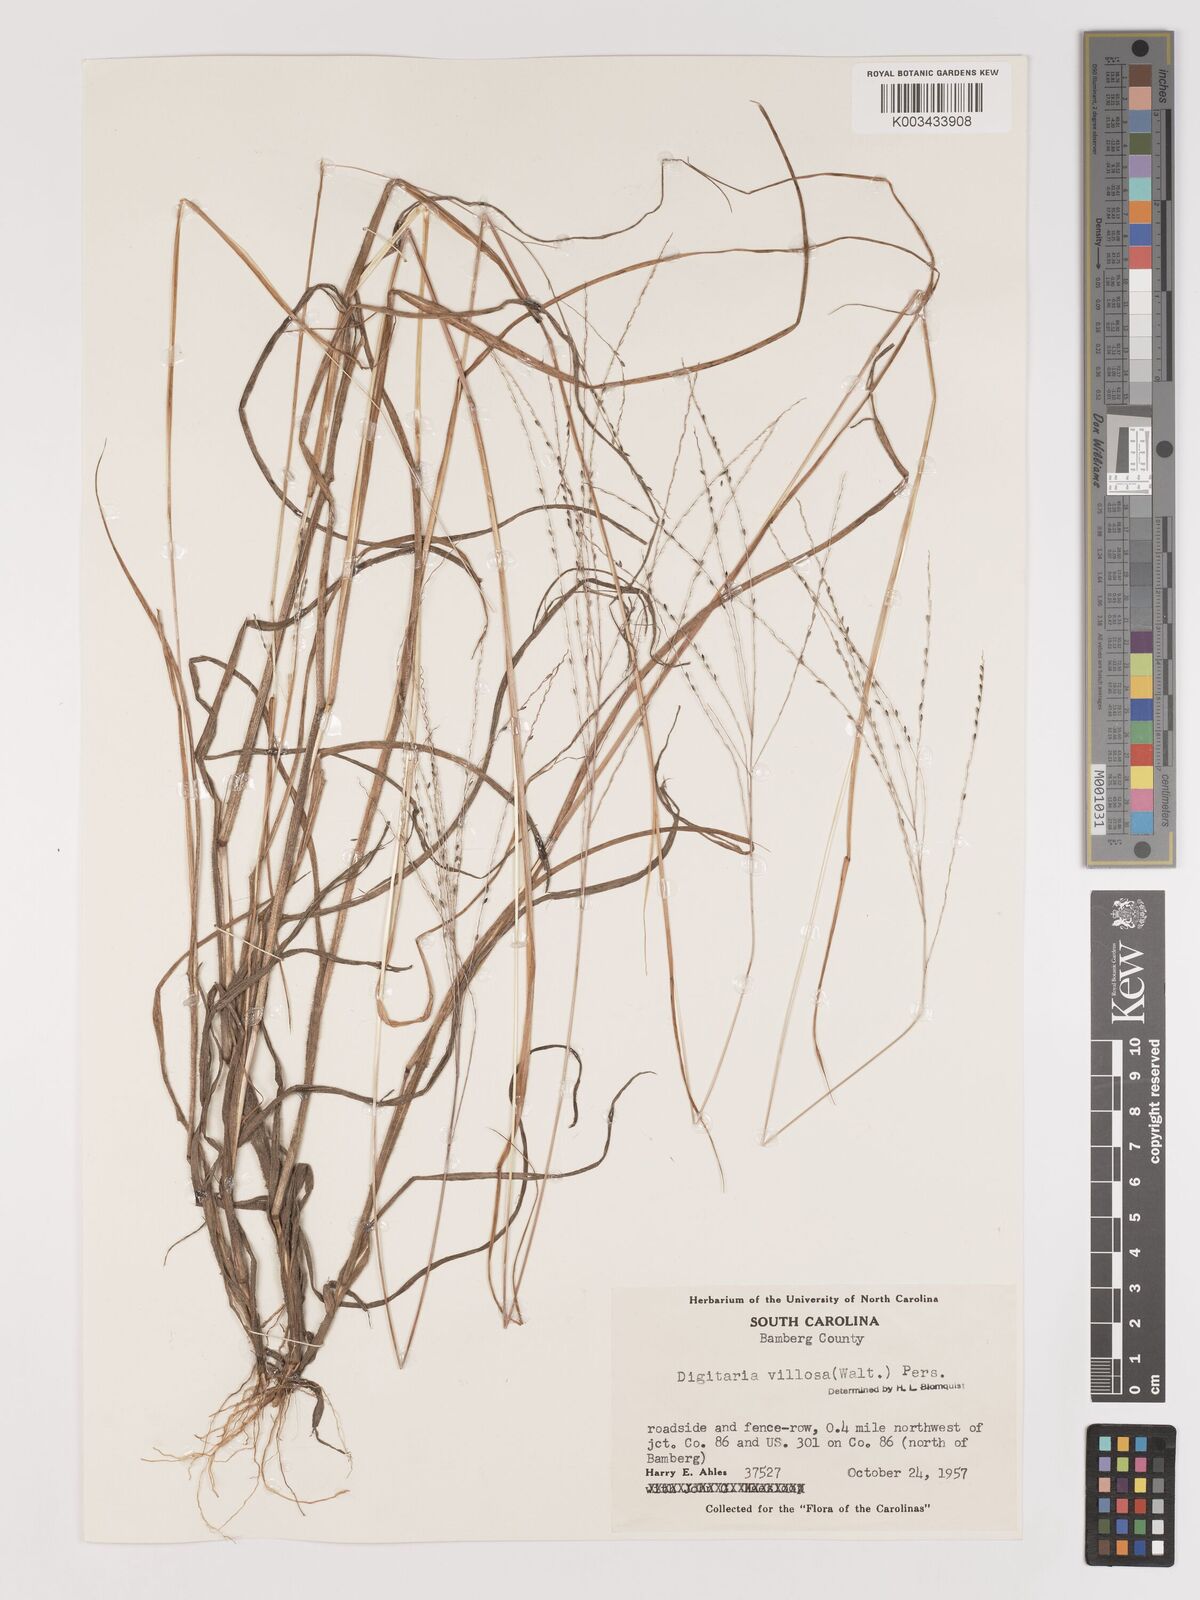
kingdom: Plantae
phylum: Tracheophyta
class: Liliopsida
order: Poales
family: Poaceae
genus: Digitaria
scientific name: Digitaria villosa
